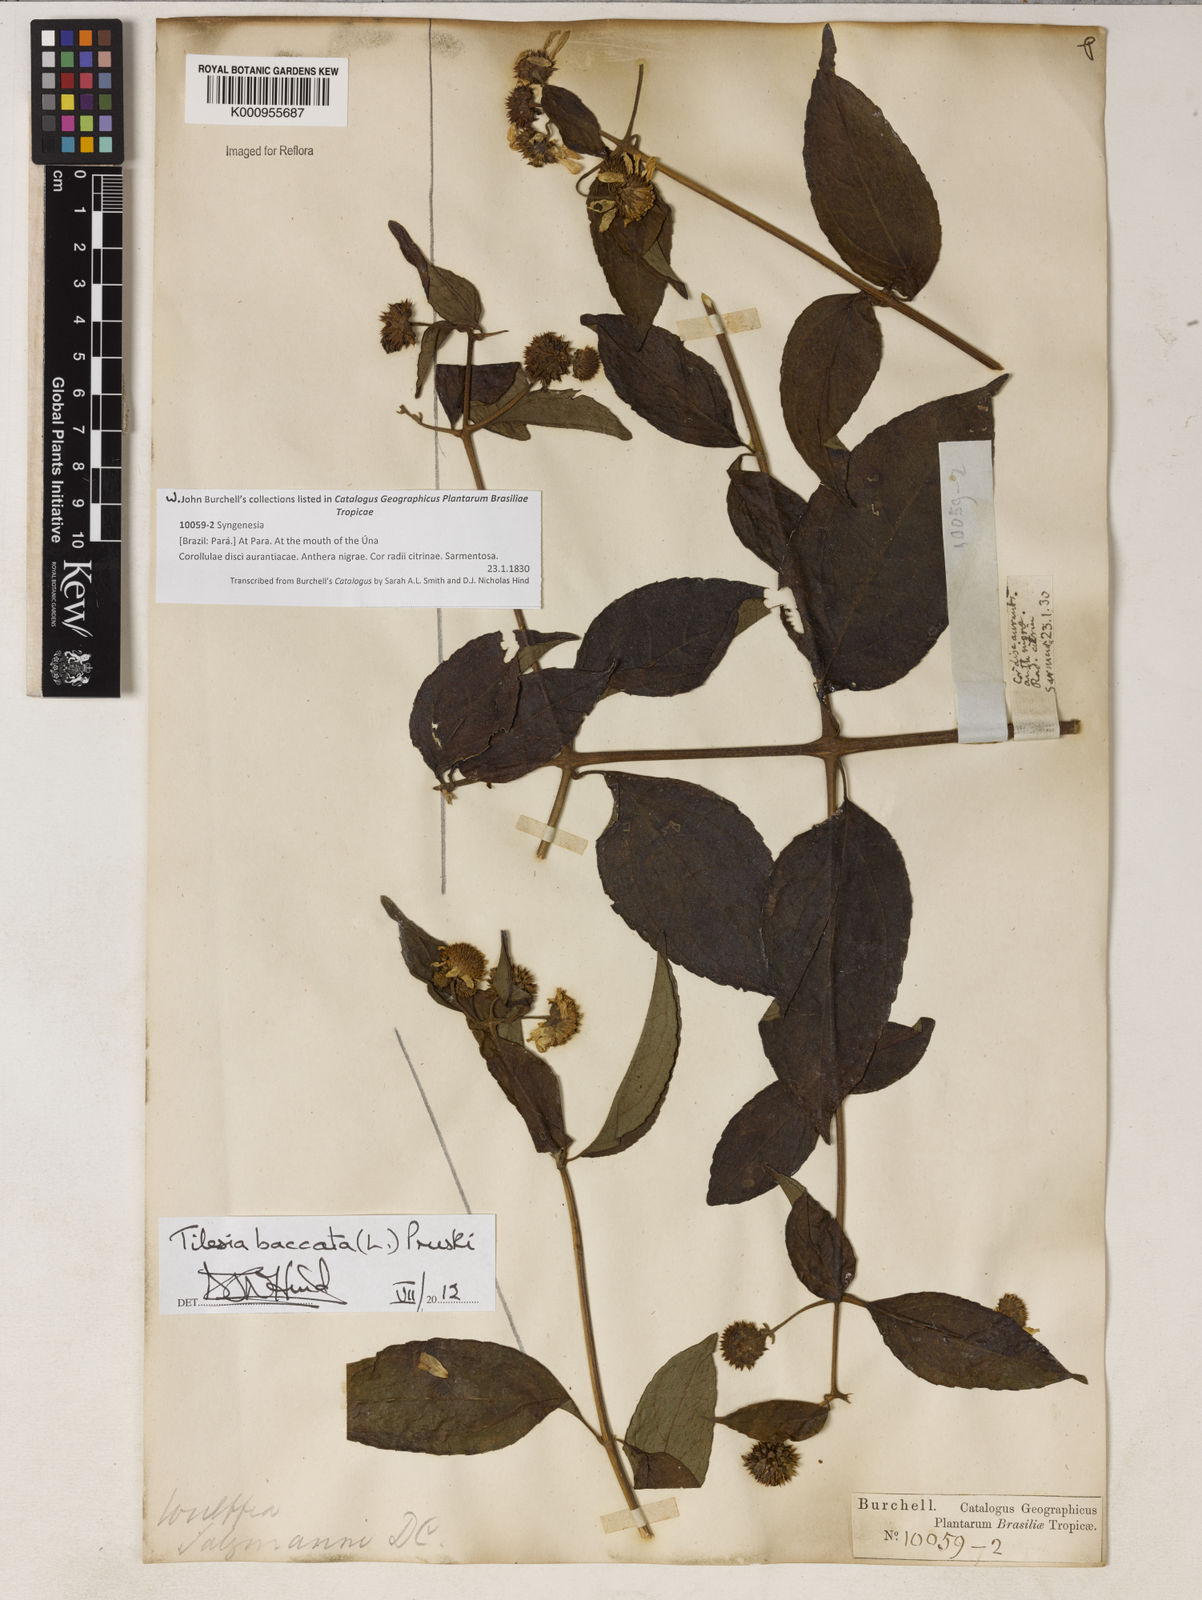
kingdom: Plantae
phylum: Tracheophyta
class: Magnoliopsida
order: Asterales
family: Asteraceae
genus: Tilesia
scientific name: Tilesia baccata
